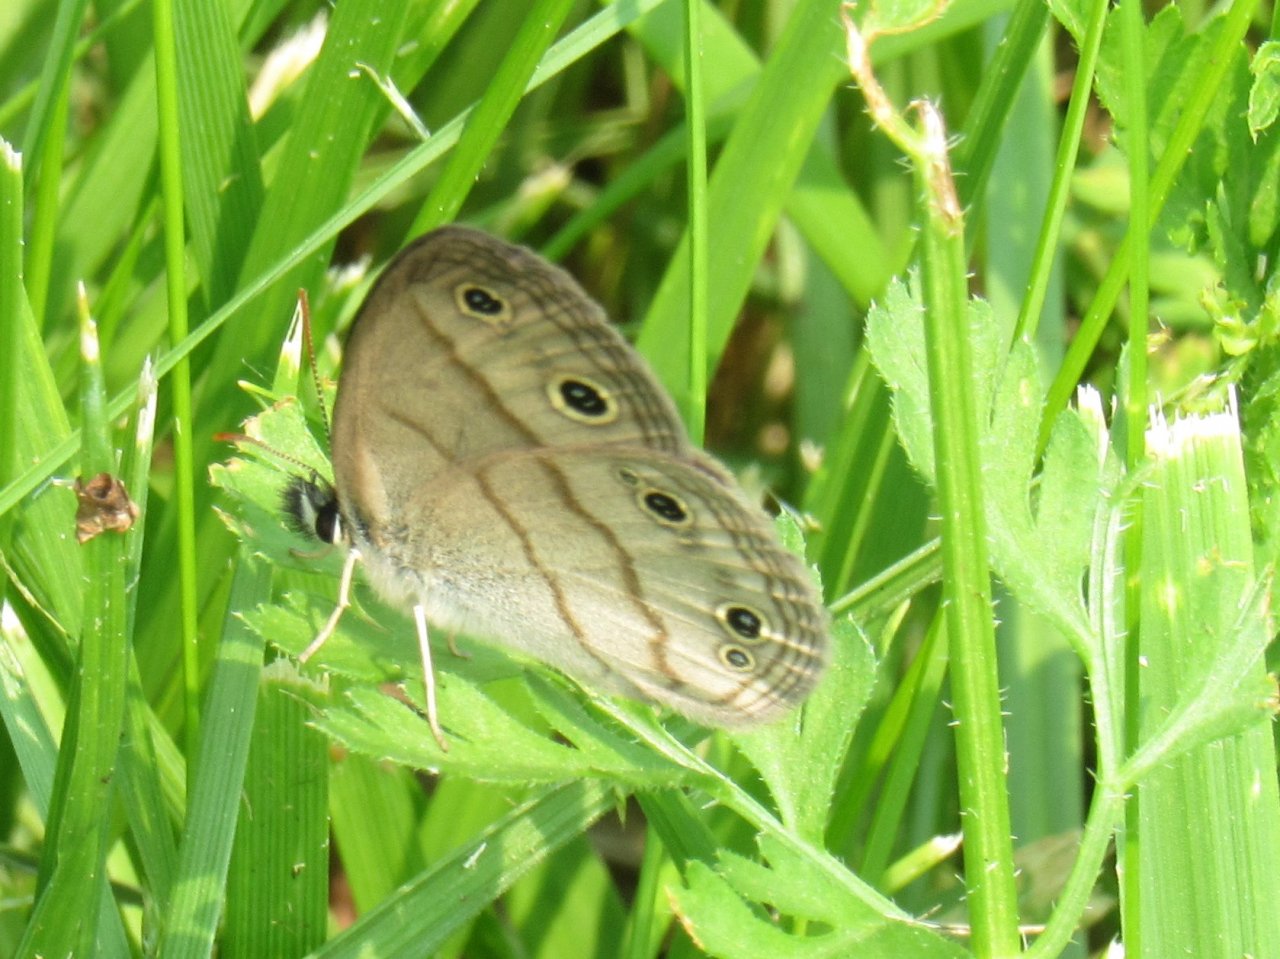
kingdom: Animalia
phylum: Arthropoda
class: Insecta
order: Lepidoptera
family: Nymphalidae
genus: Euptychia
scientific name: Euptychia cymela
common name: Little Wood Satyr
